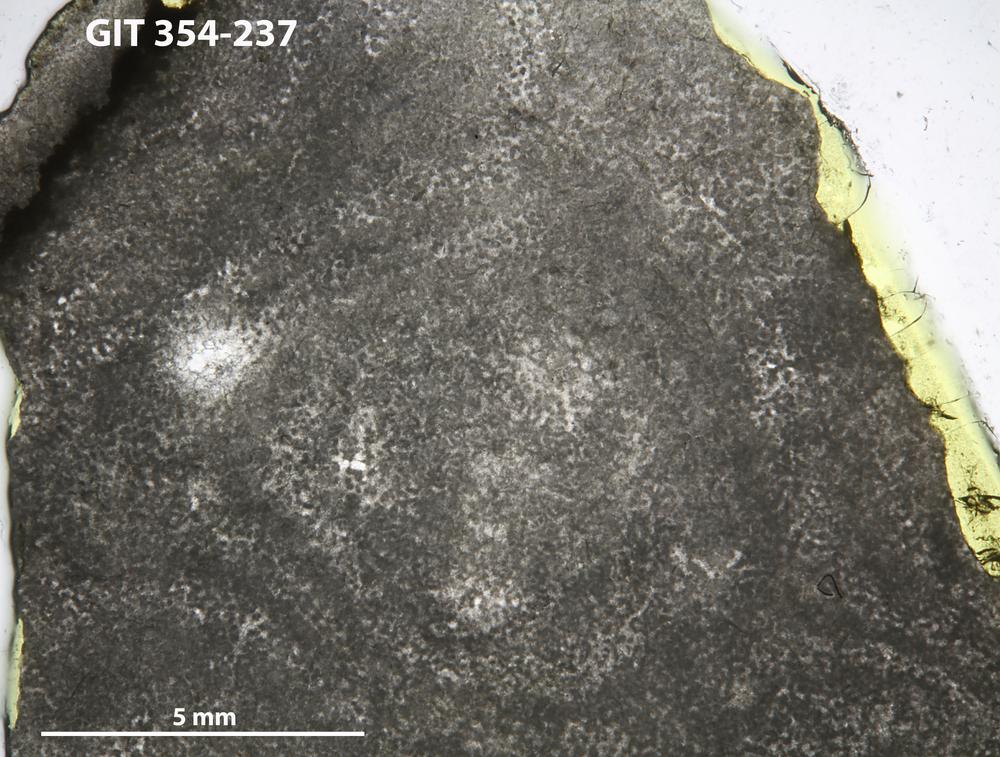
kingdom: Animalia
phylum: Porifera
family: Clathrodictyidae
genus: Clathrodictyon
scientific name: Clathrodictyon sulevi
